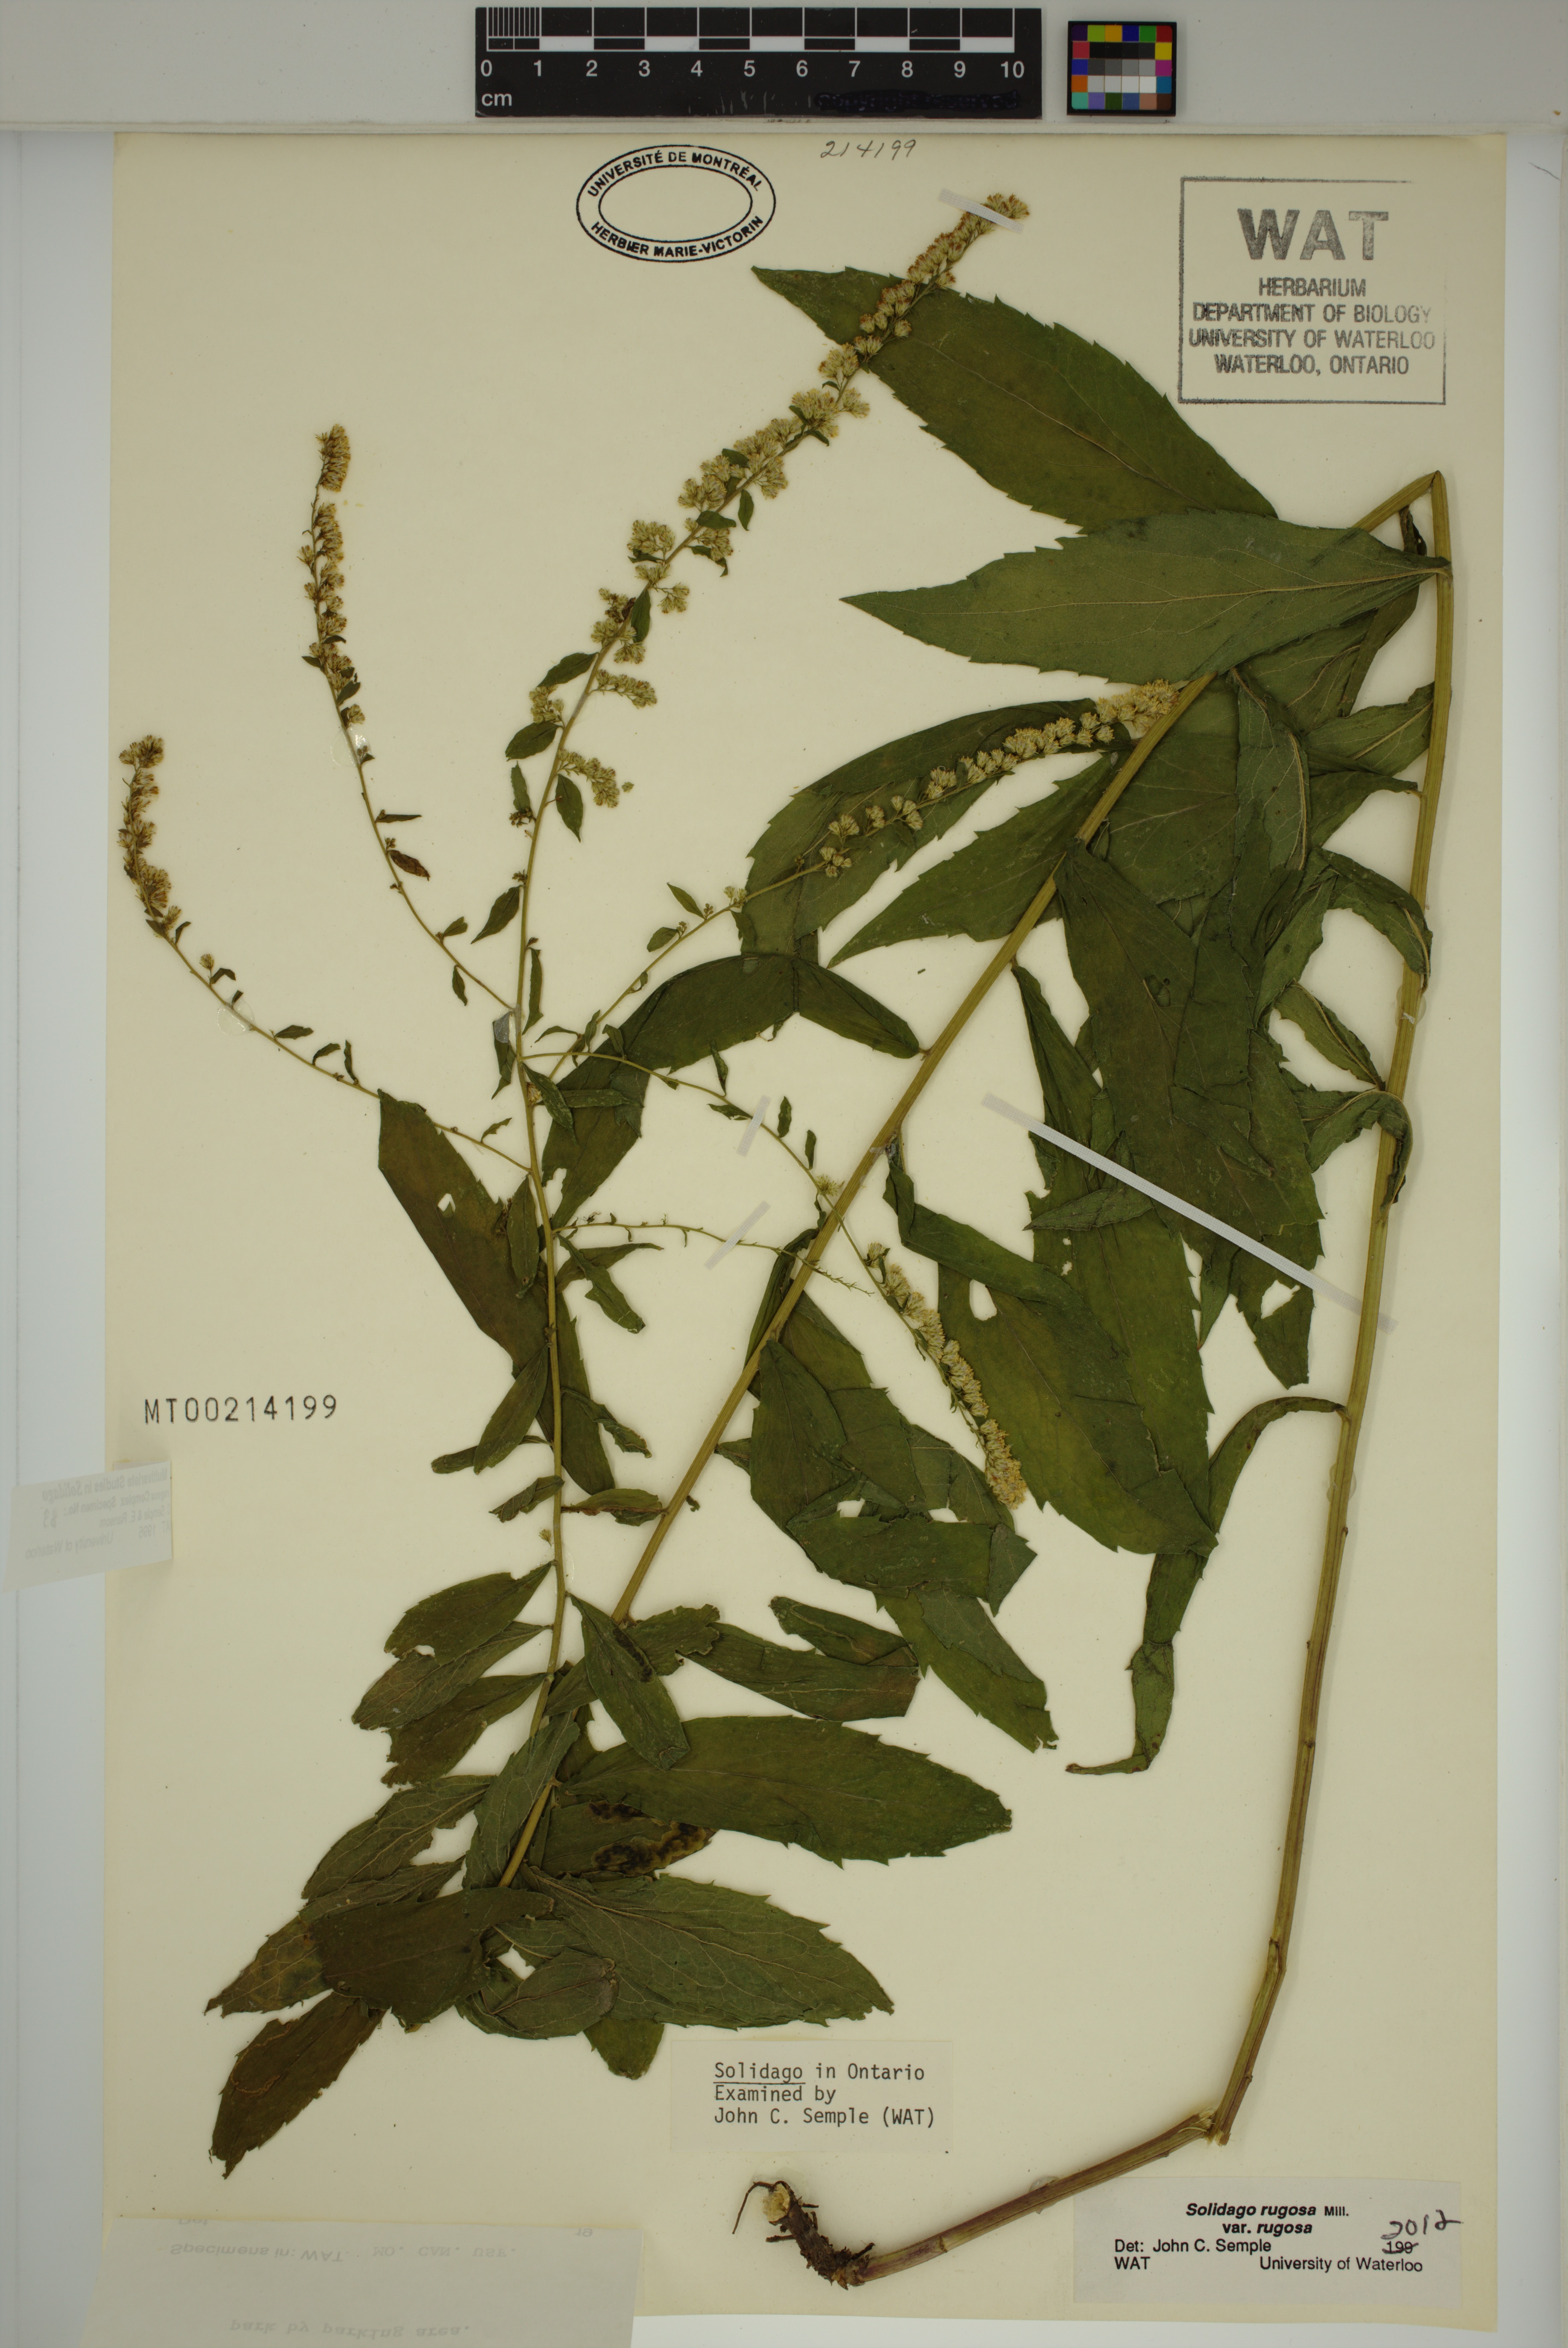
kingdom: Plantae
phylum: Tracheophyta
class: Magnoliopsida
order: Asterales
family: Asteraceae
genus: Solidago
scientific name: Solidago rugosa
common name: Rough-stemmed goldenrod
